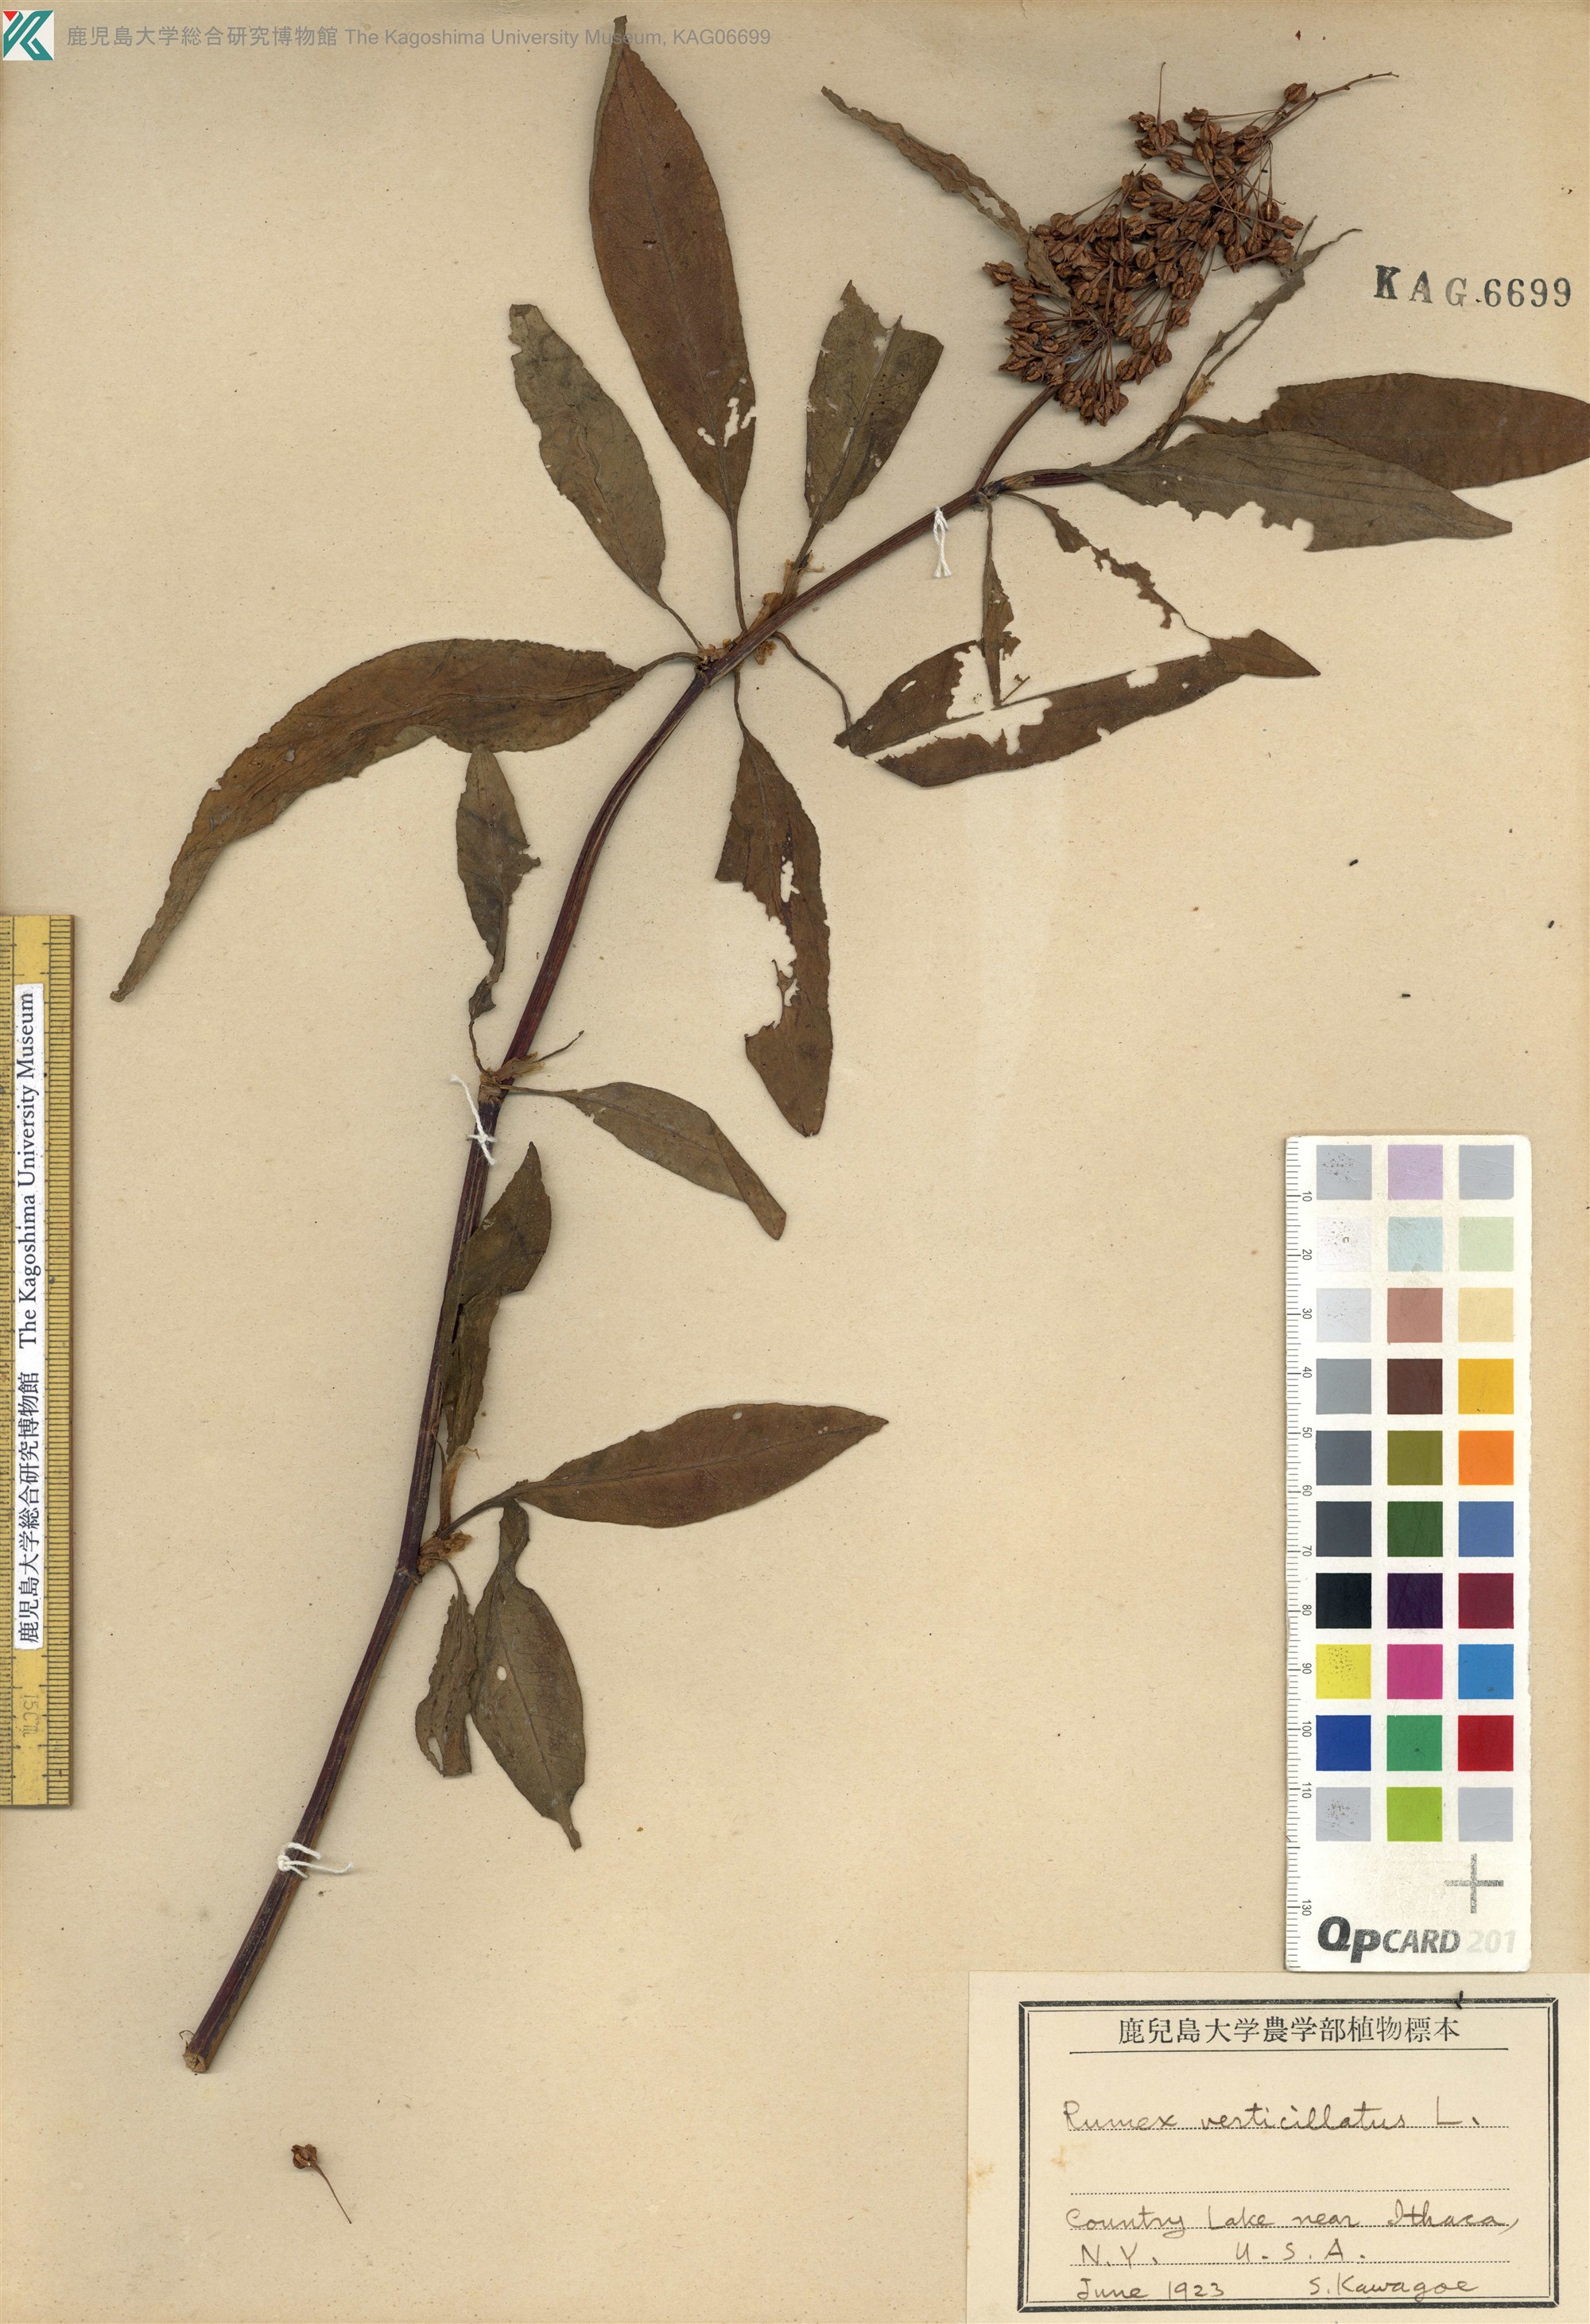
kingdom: Plantae
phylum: Tracheophyta
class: Magnoliopsida
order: Caryophyllales
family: Polygonaceae
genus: Rumex
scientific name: Rumex verticillatus
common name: Swamp dock
